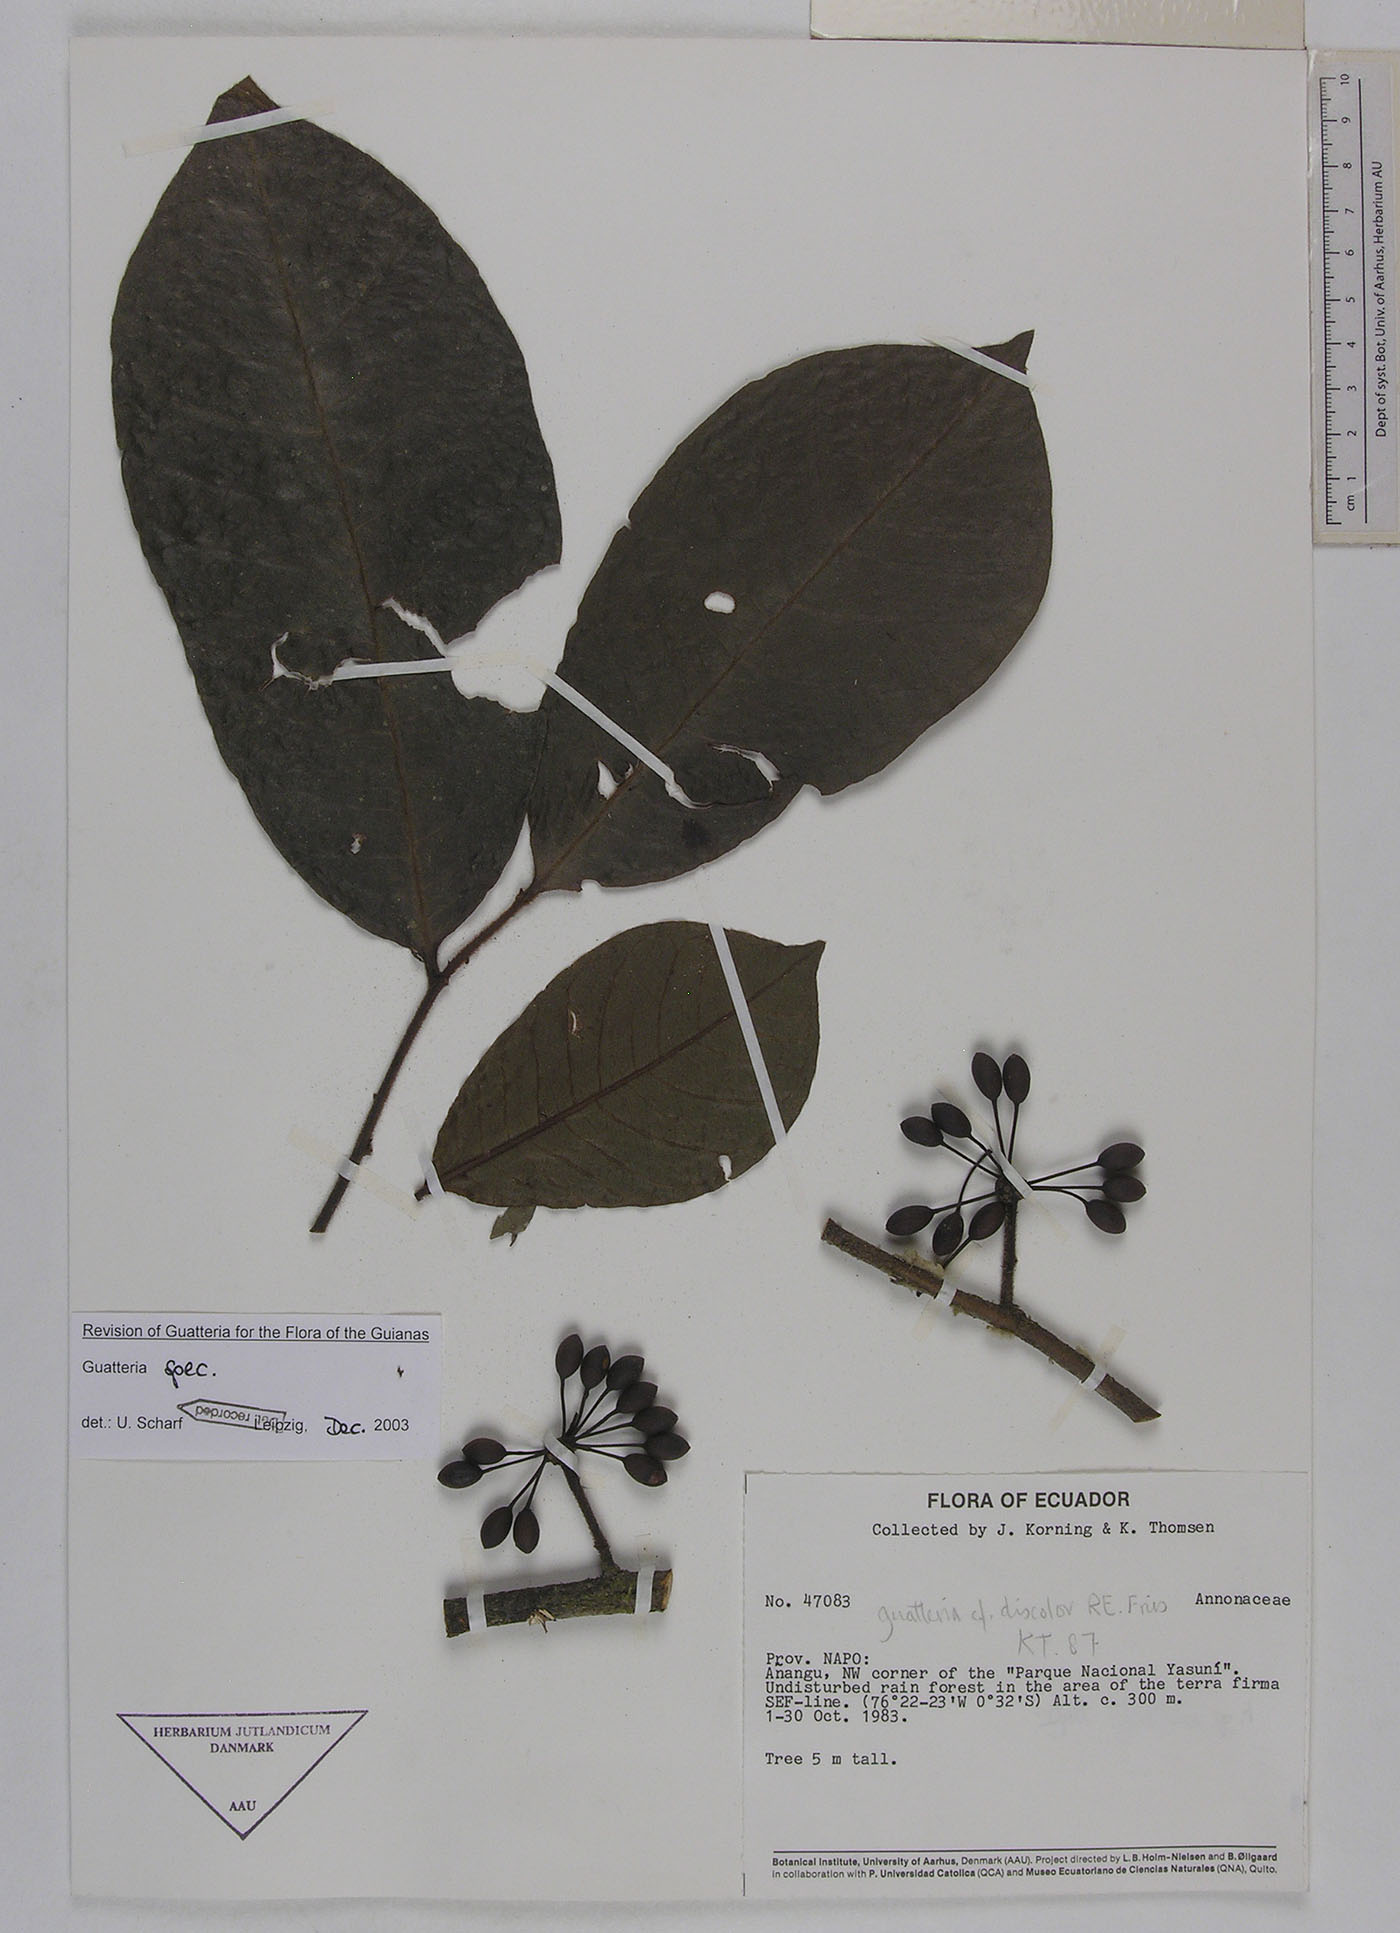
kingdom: Plantae
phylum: Tracheophyta
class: Magnoliopsida
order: Magnoliales
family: Annonaceae
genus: Guatteria
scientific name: Guatteria blepharophylla
